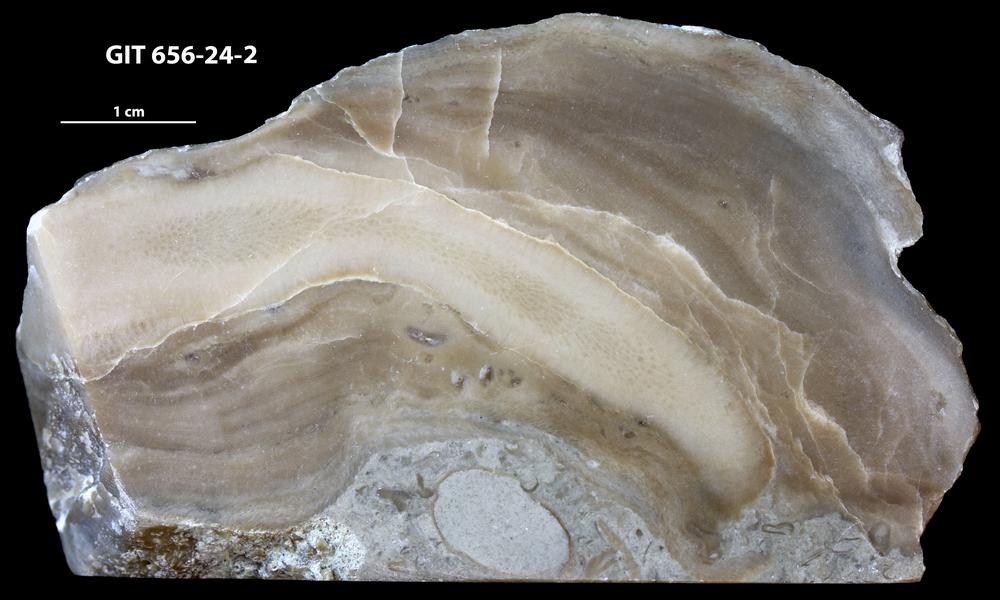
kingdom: Animalia
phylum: Cnidaria
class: Anthozoa
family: Auloporidae
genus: Aulopora
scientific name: Aulopora
